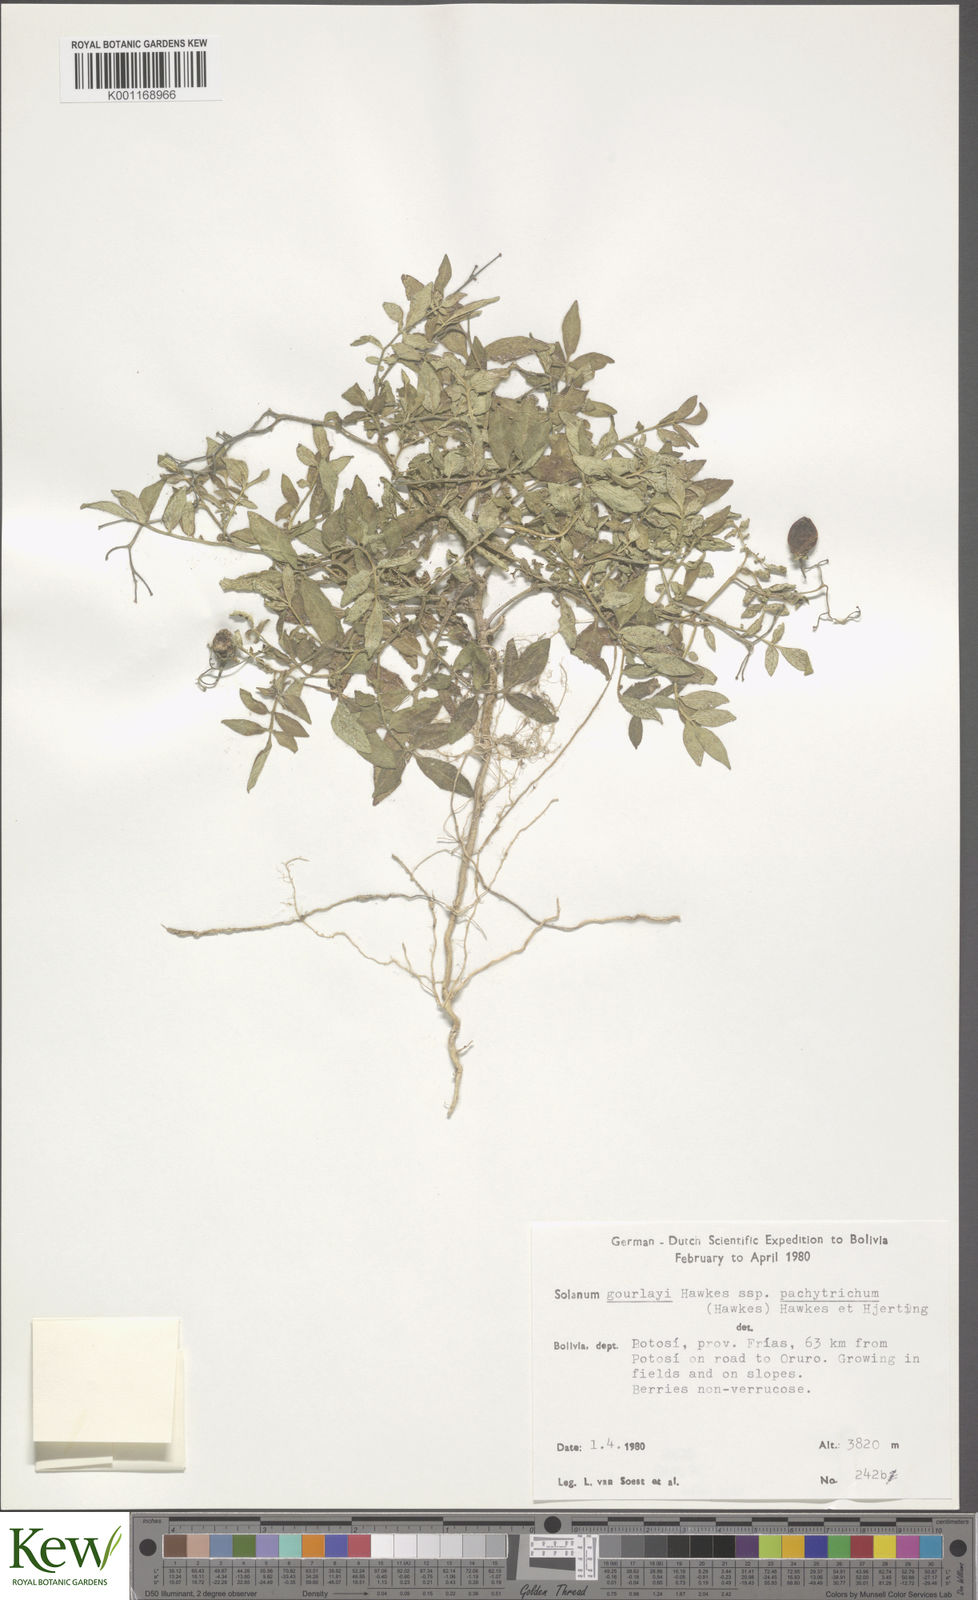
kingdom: Plantae
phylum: Tracheophyta
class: Magnoliopsida
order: Solanales
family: Solanaceae
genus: Solanum
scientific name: Solanum brevicaule
